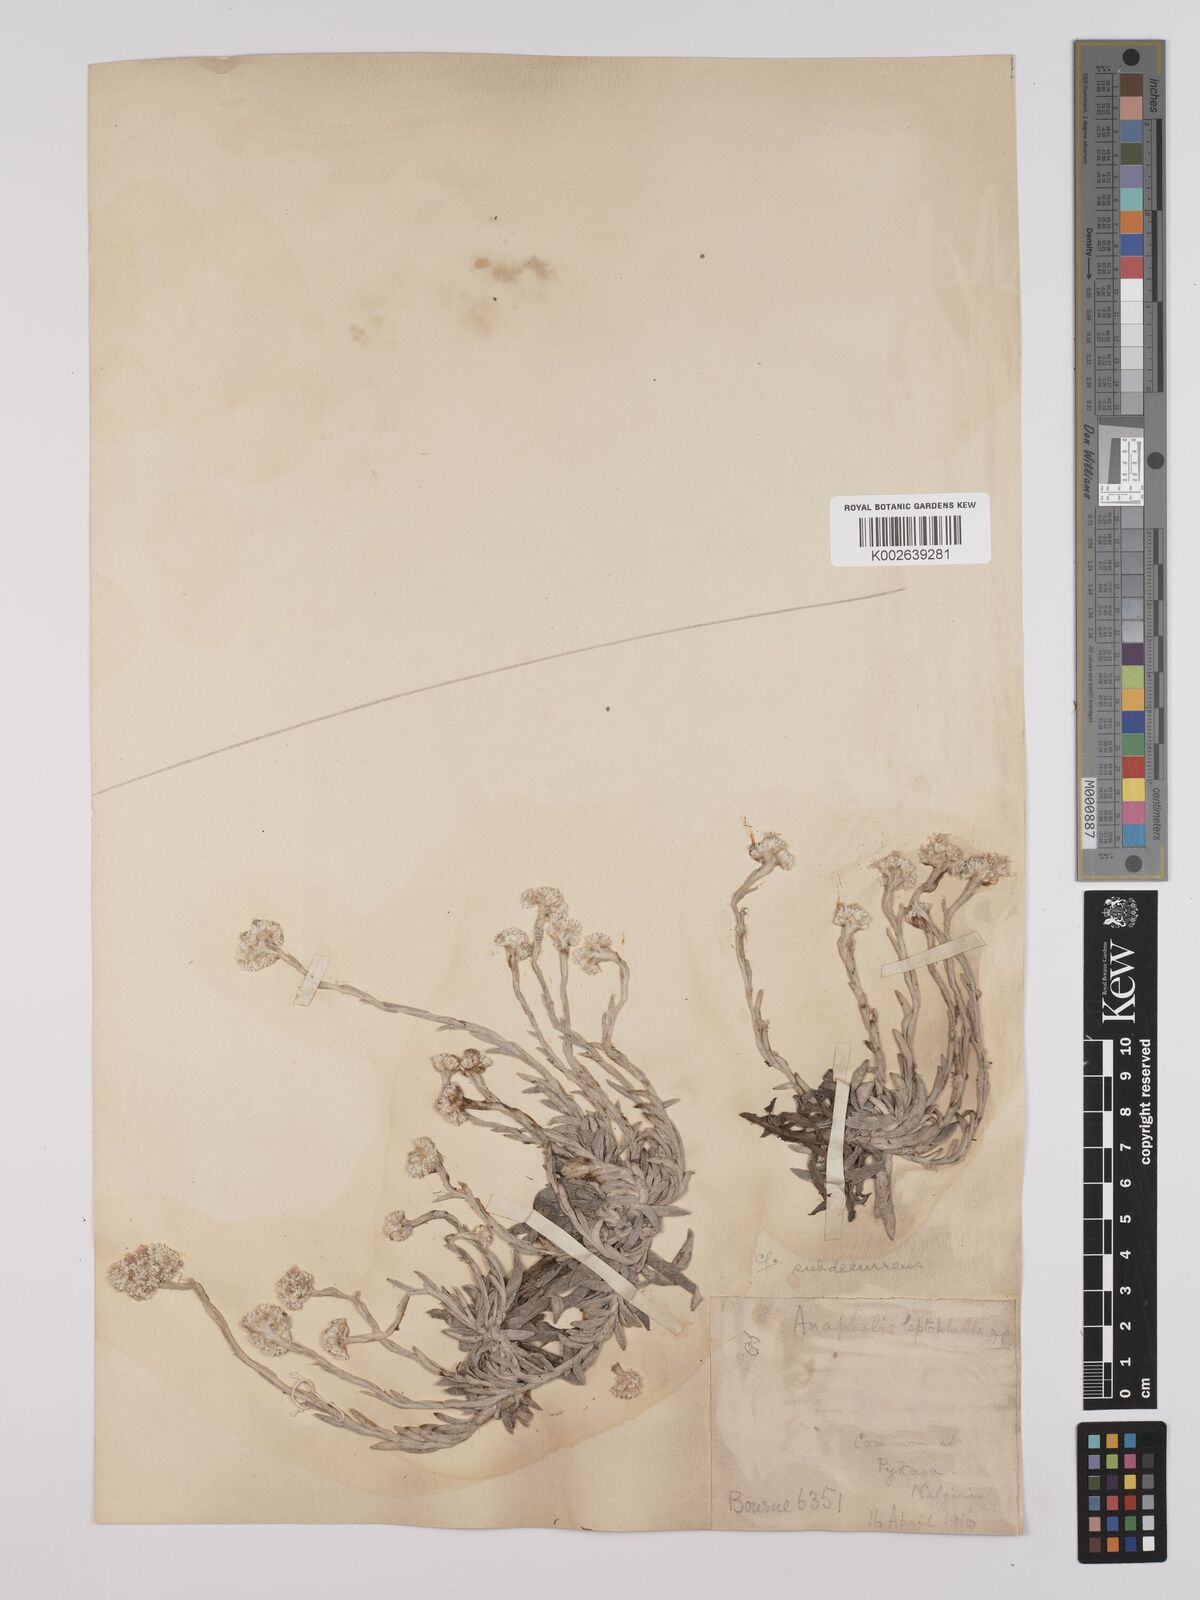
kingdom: Plantae
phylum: Tracheophyta
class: Magnoliopsida
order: Asterales
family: Asteraceae
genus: Anaphalis
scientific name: Anaphalis
